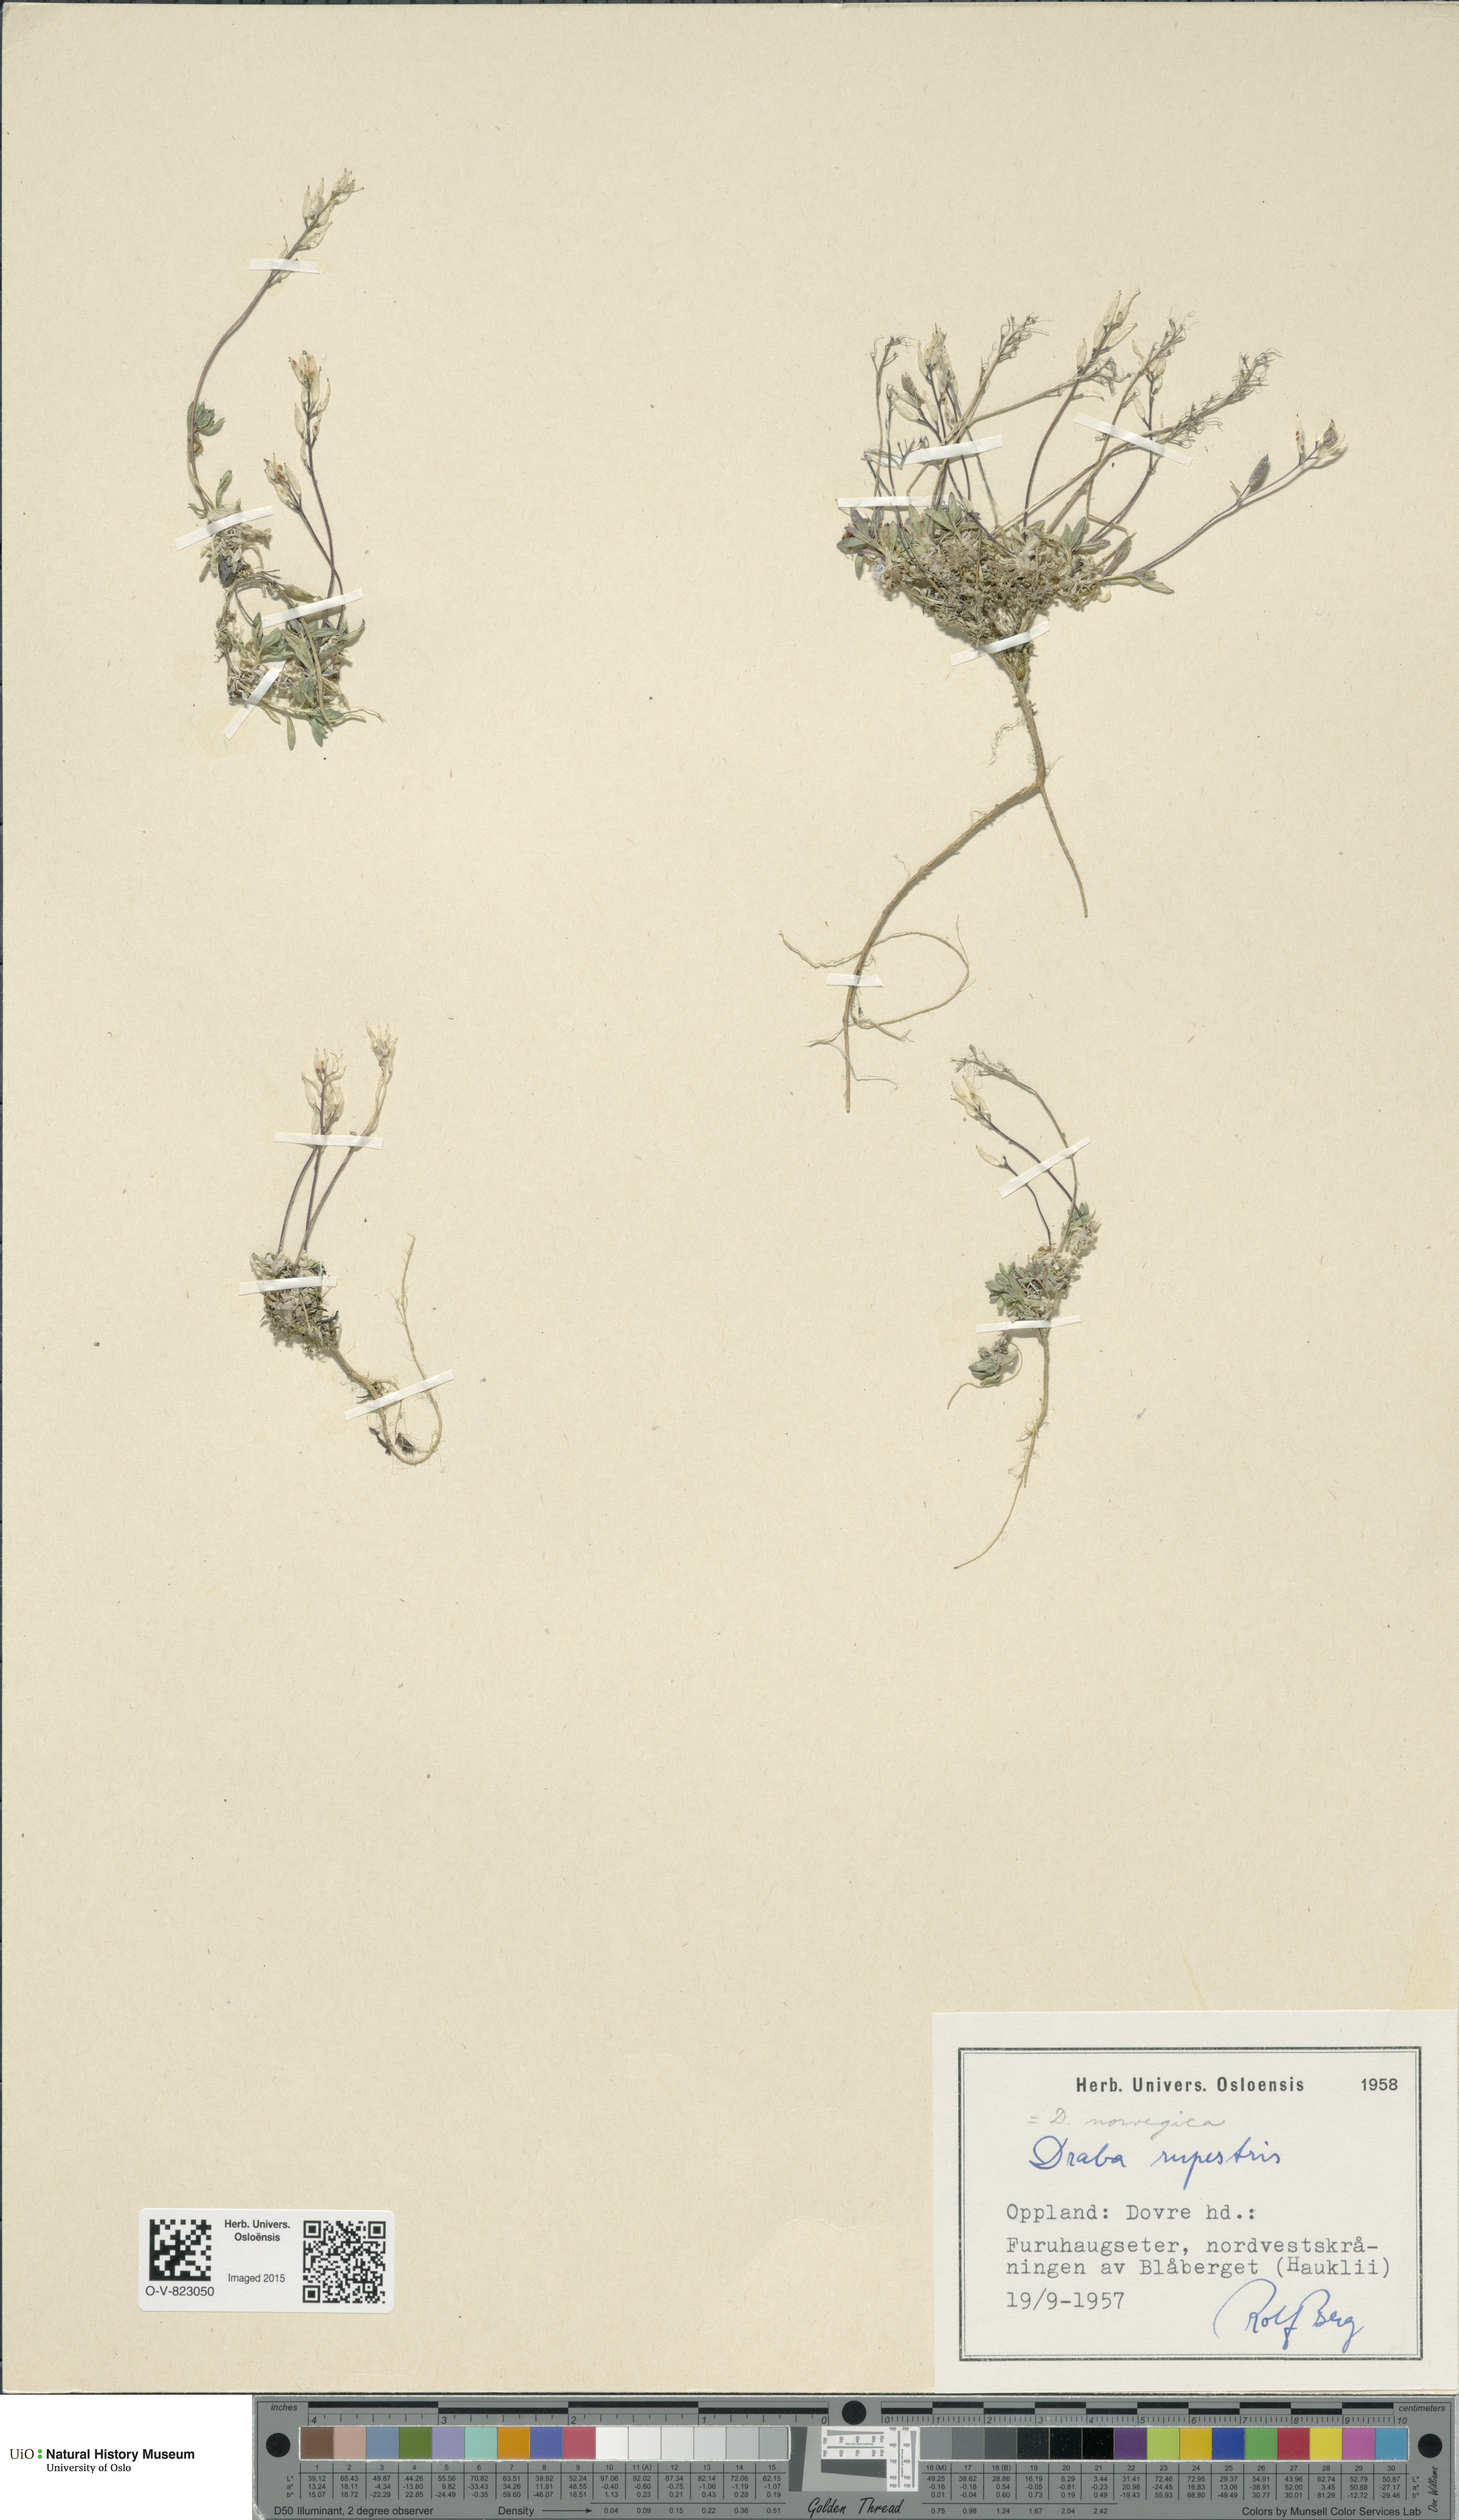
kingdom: Plantae
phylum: Tracheophyta
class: Magnoliopsida
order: Brassicales
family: Brassicaceae
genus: Draba
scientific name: Draba norvegica
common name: Rock whitlowgrass
